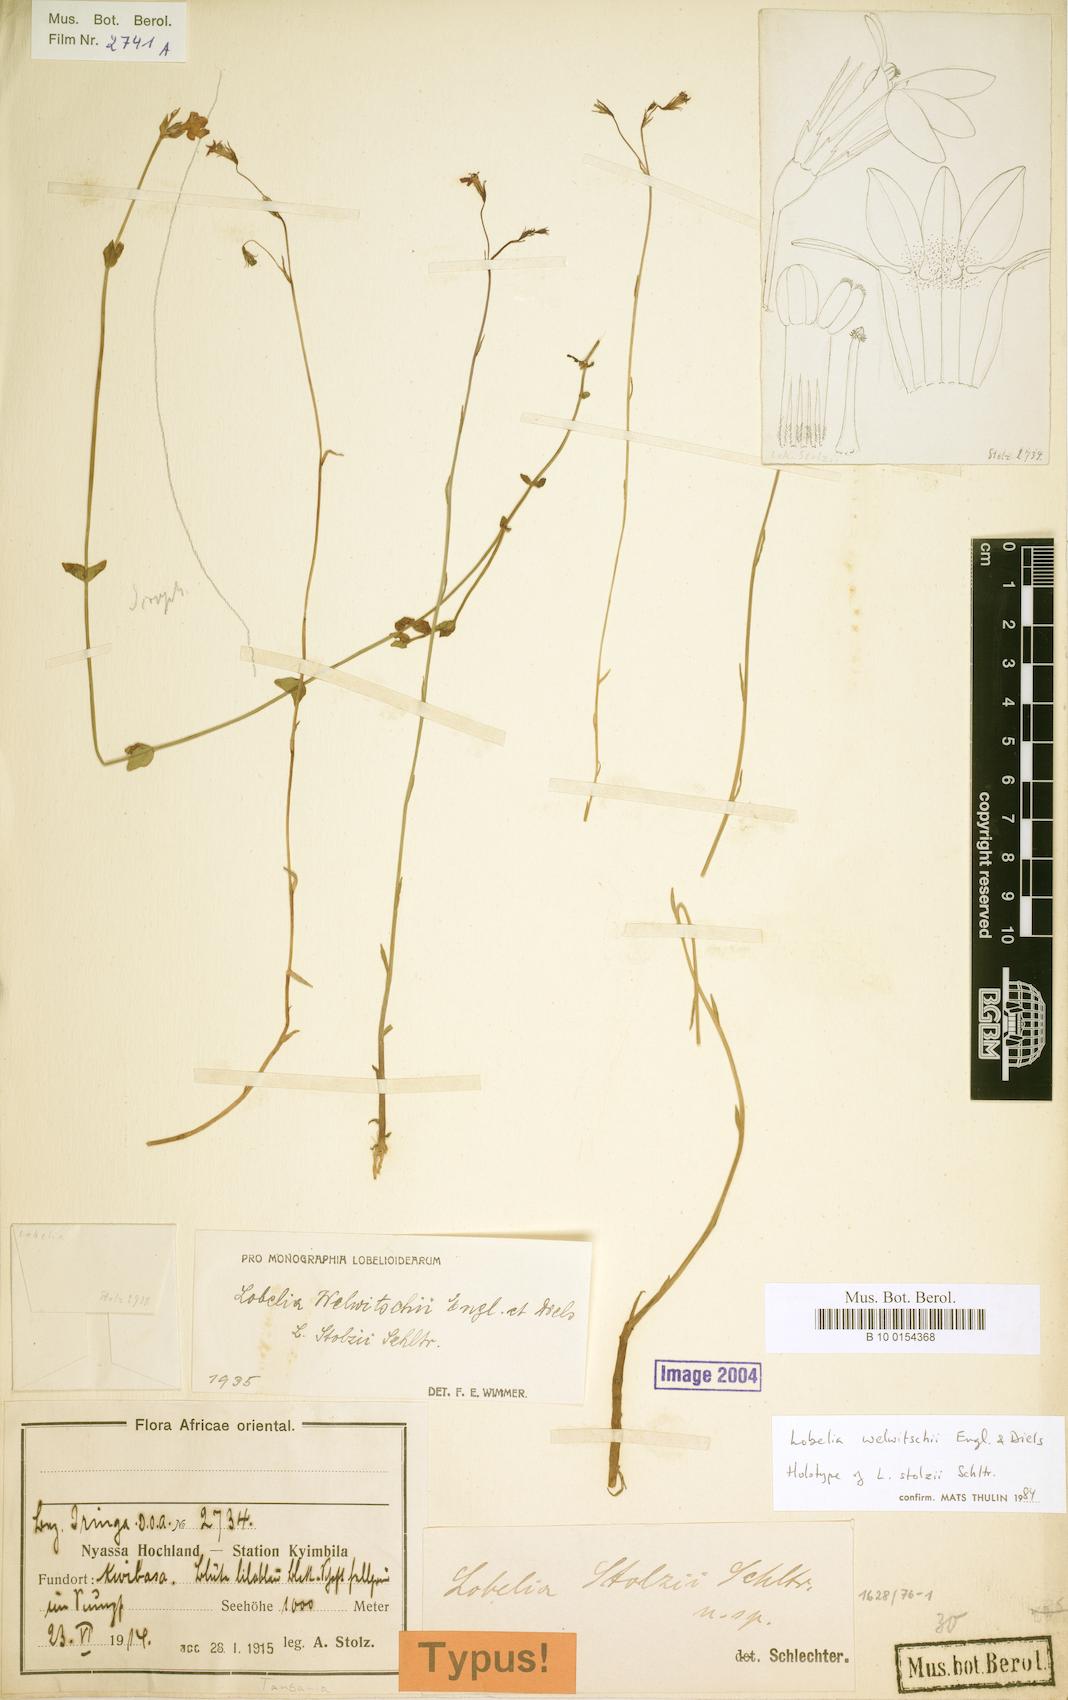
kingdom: Plantae
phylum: Tracheophyta
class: Magnoliopsida
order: Asterales
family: Campanulaceae
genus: Lobelia
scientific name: Lobelia welwitschii
